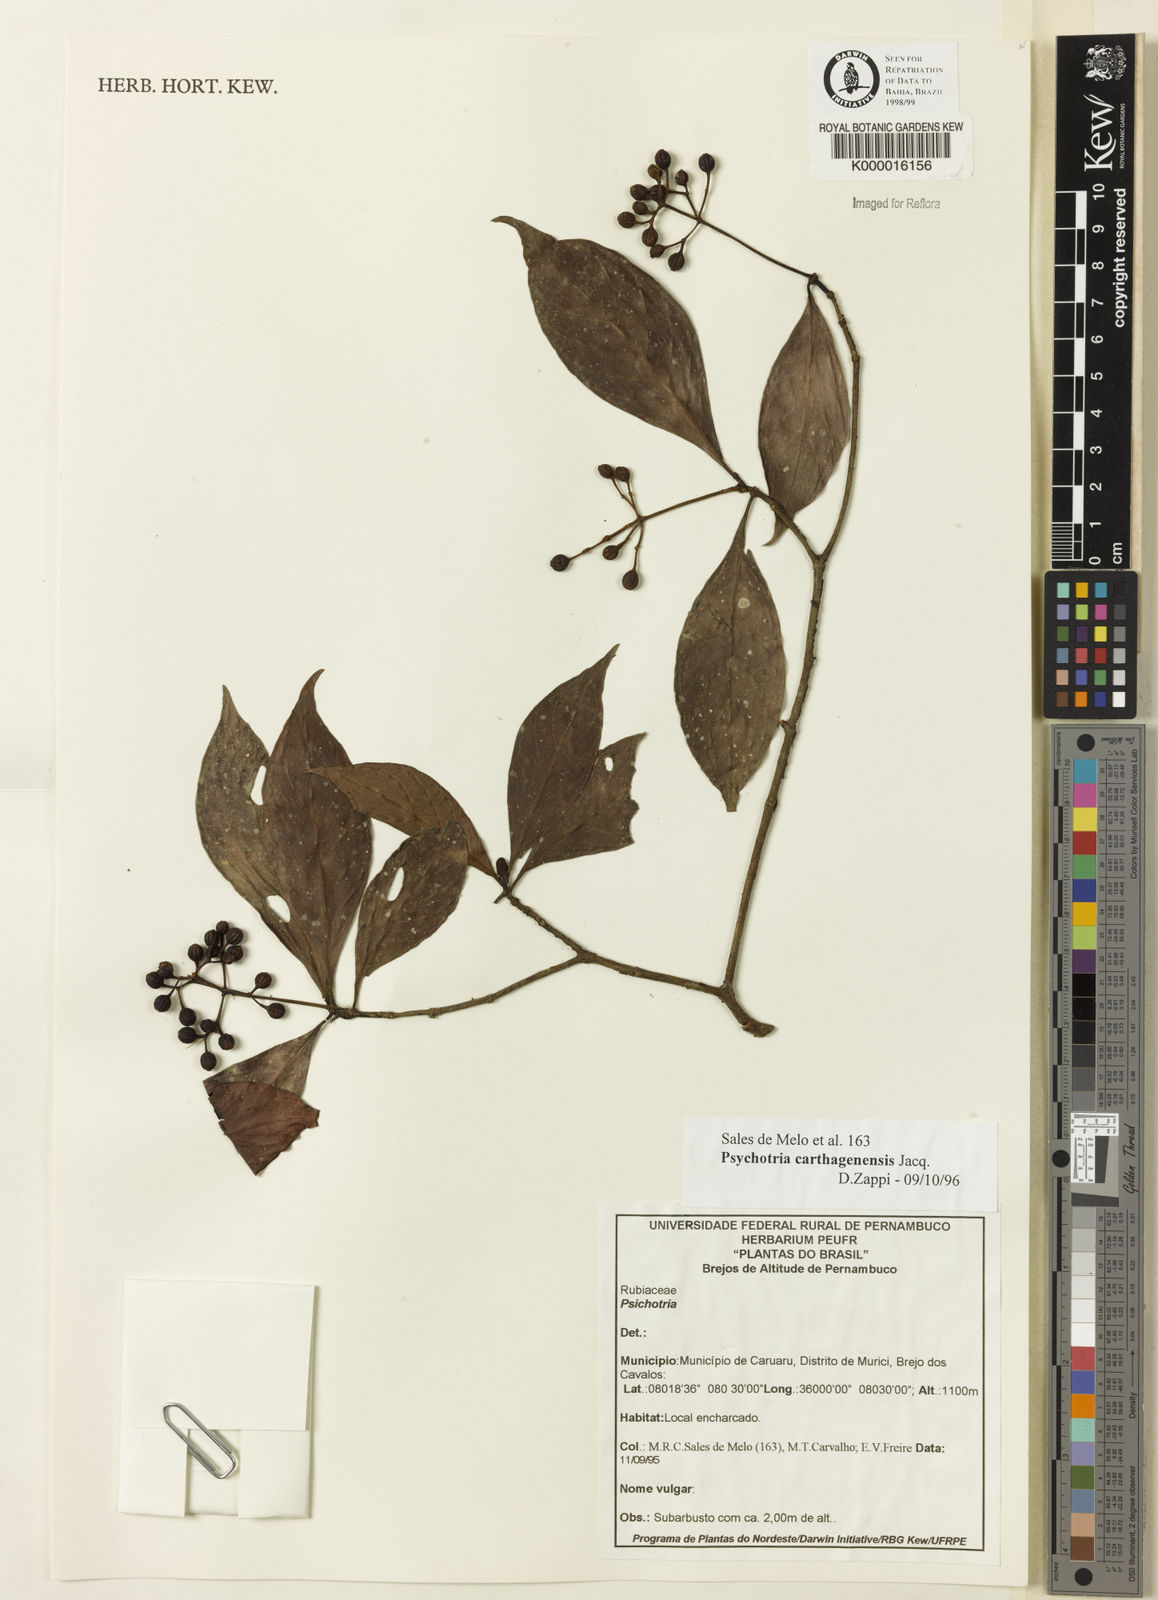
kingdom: Plantae
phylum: Tracheophyta
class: Magnoliopsida
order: Gentianales
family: Rubiaceae
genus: Psychotria
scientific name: Psychotria carthagenensis
